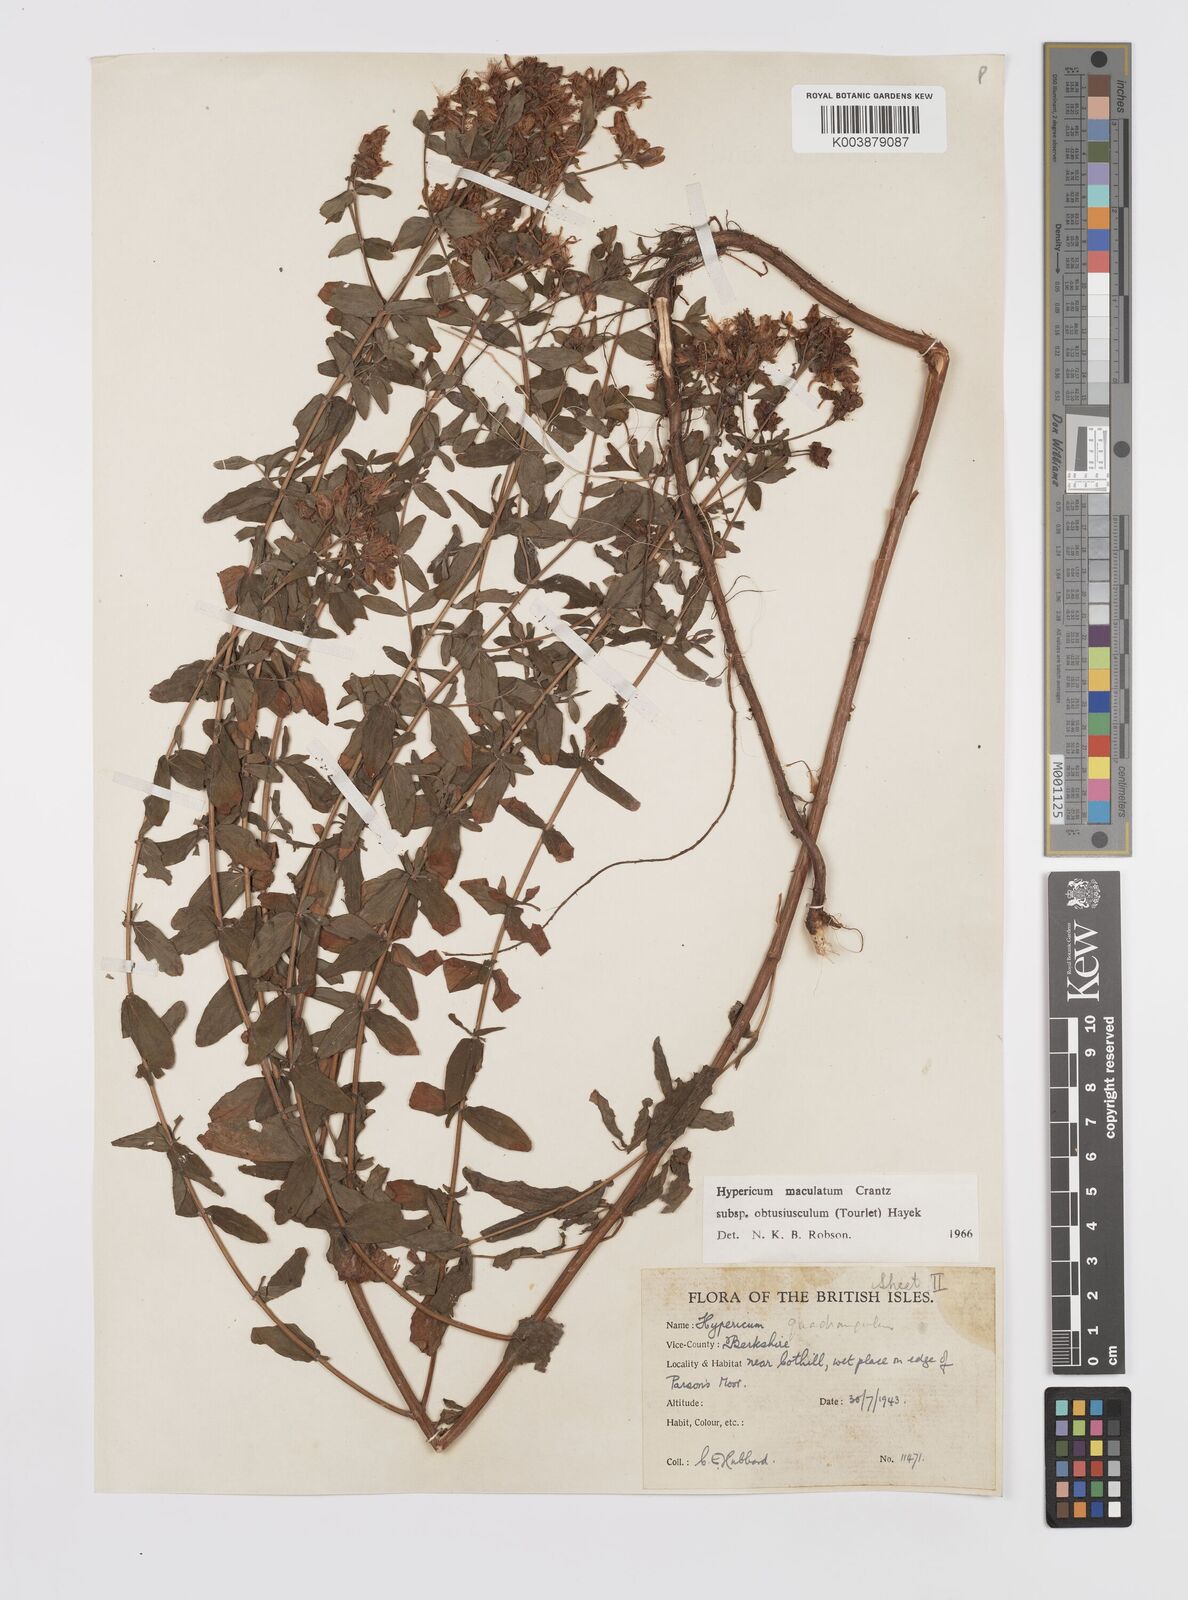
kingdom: Plantae
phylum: Tracheophyta
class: Magnoliopsida
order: Malpighiales
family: Hypericaceae
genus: Hypericum
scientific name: Hypericum dubium
